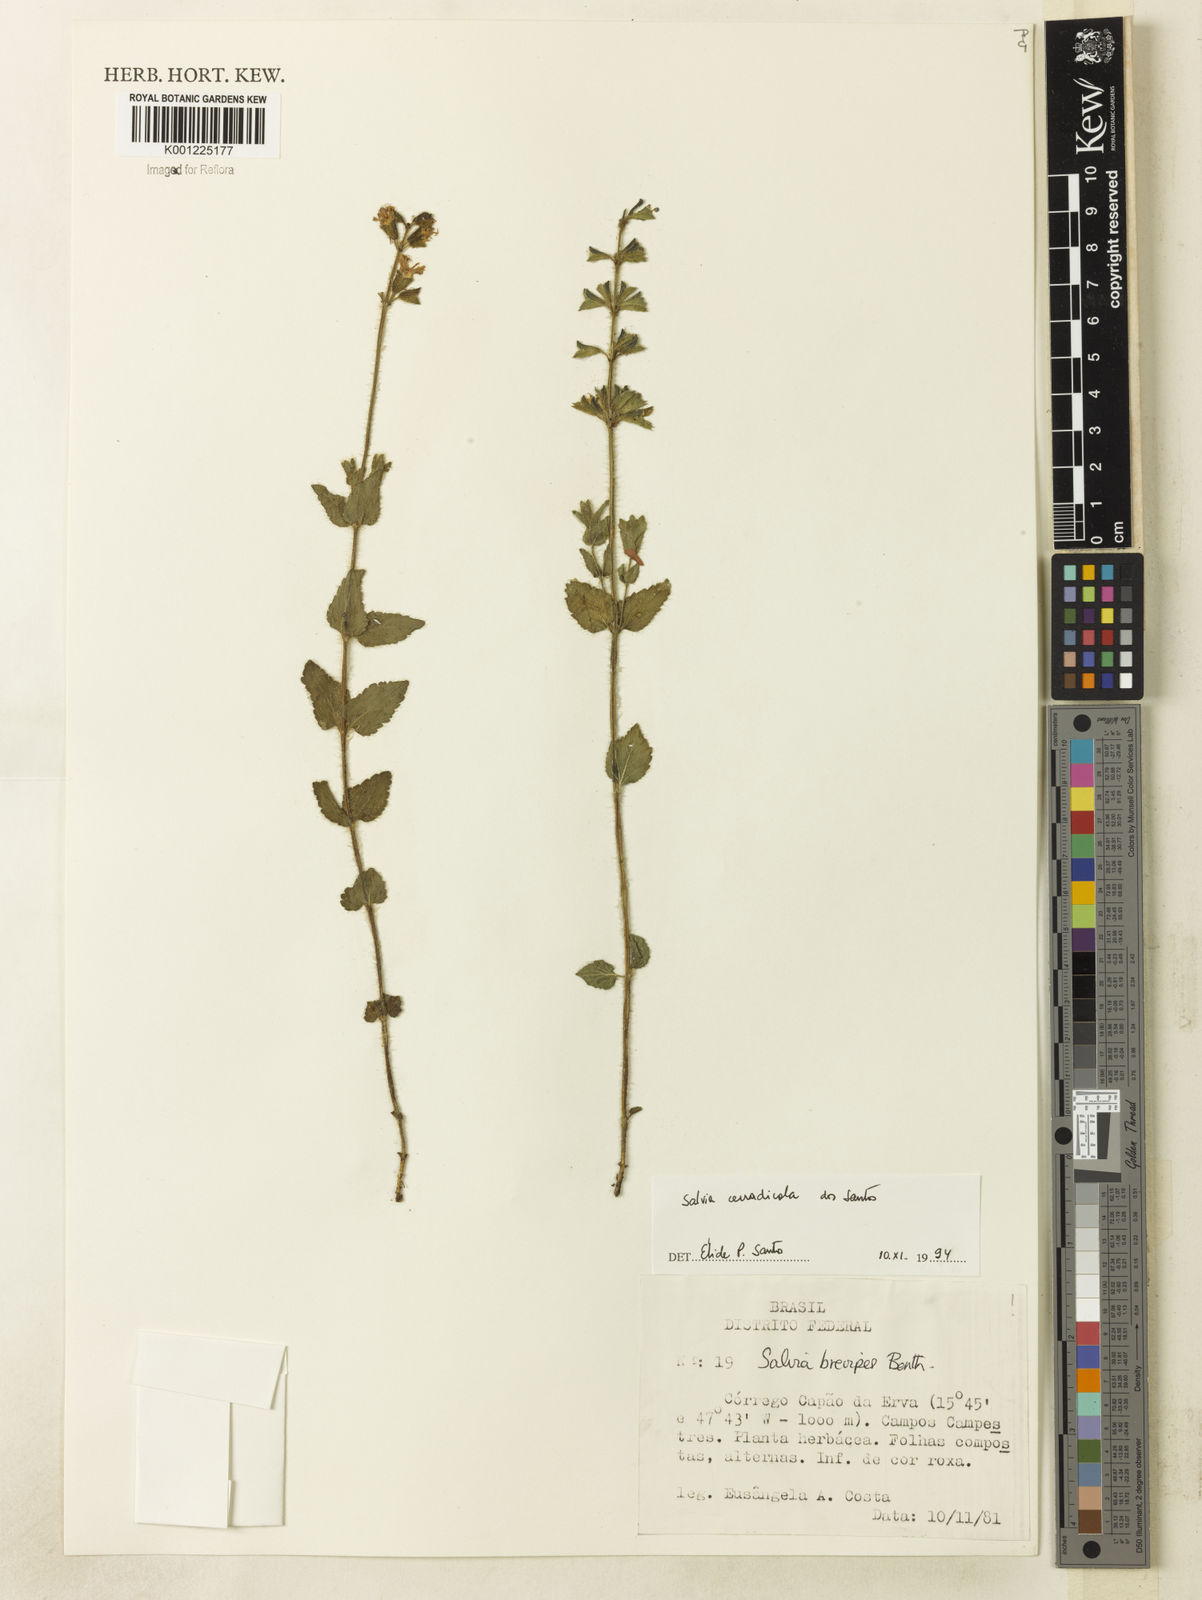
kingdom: Plantae
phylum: Tracheophyta
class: Magnoliopsida
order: Lamiales
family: Lamiaceae
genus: Salvia
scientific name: Salvia cerradicola
